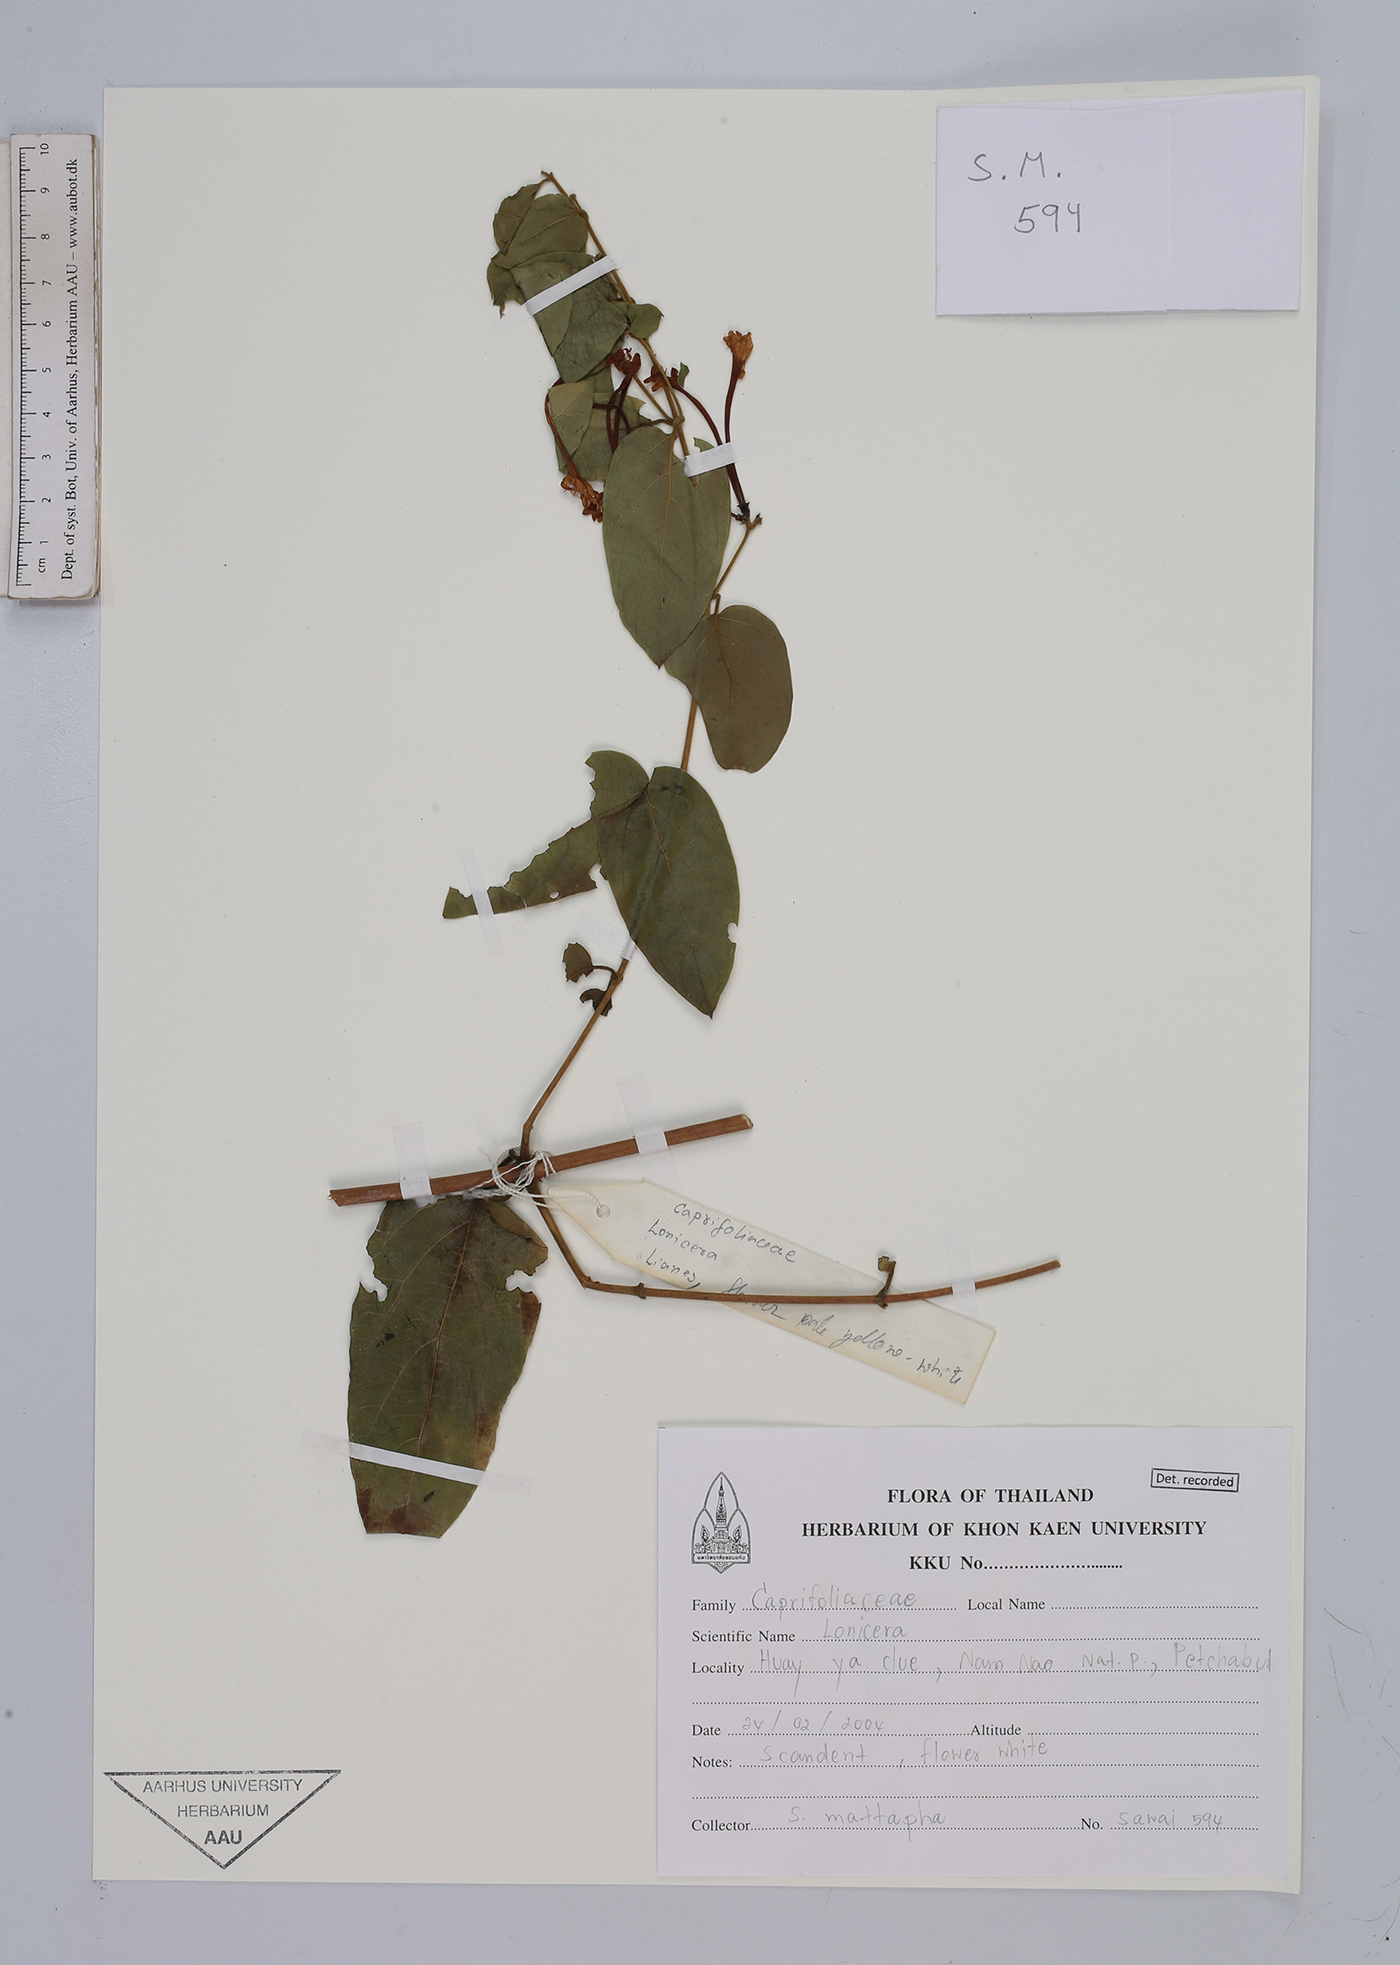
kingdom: Plantae
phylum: Tracheophyta
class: Magnoliopsida
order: Dipsacales
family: Caprifoliaceae
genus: Lonicera
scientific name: Lonicera
